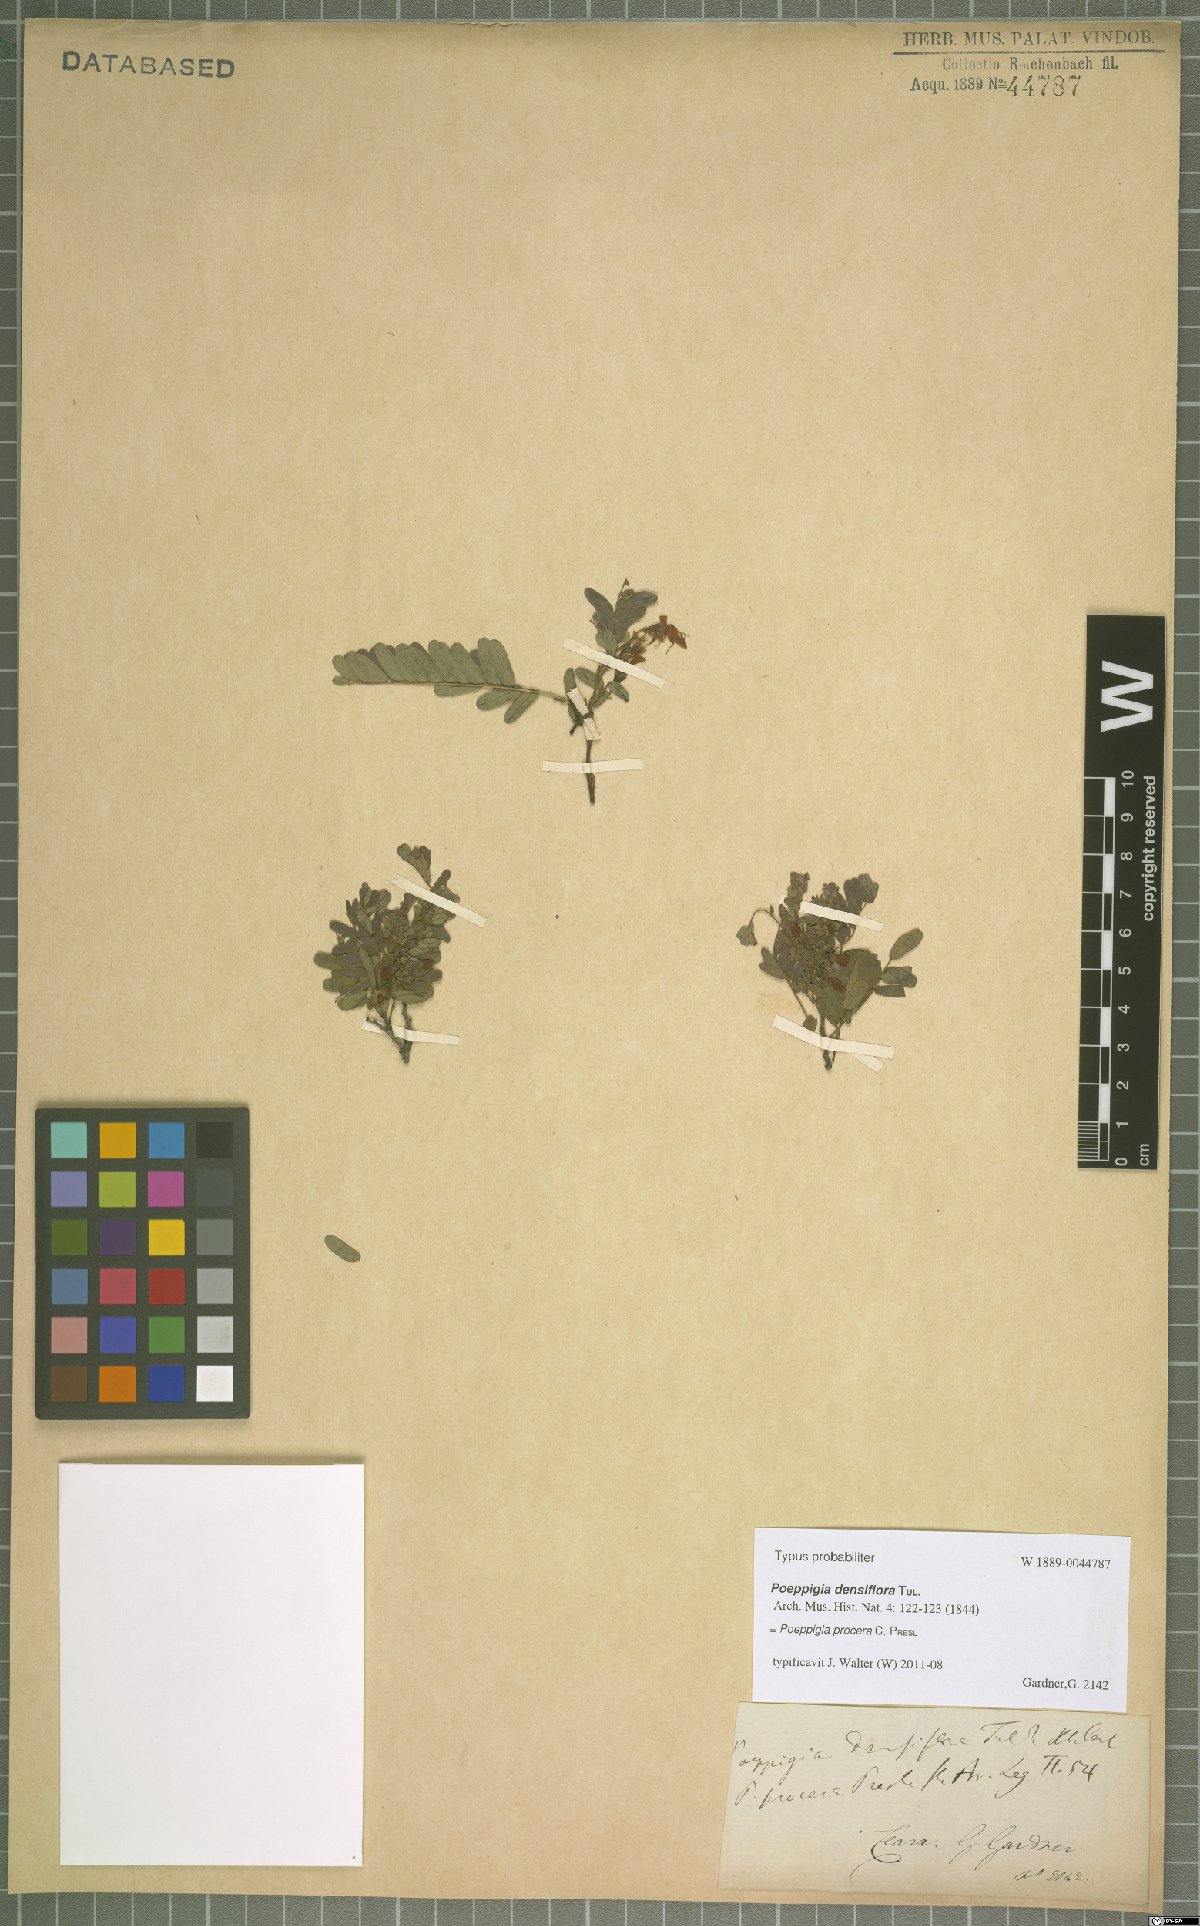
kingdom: Plantae
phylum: Tracheophyta
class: Magnoliopsida
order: Fabales
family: Fabaceae
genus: Poeppigia
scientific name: Poeppigia procera
